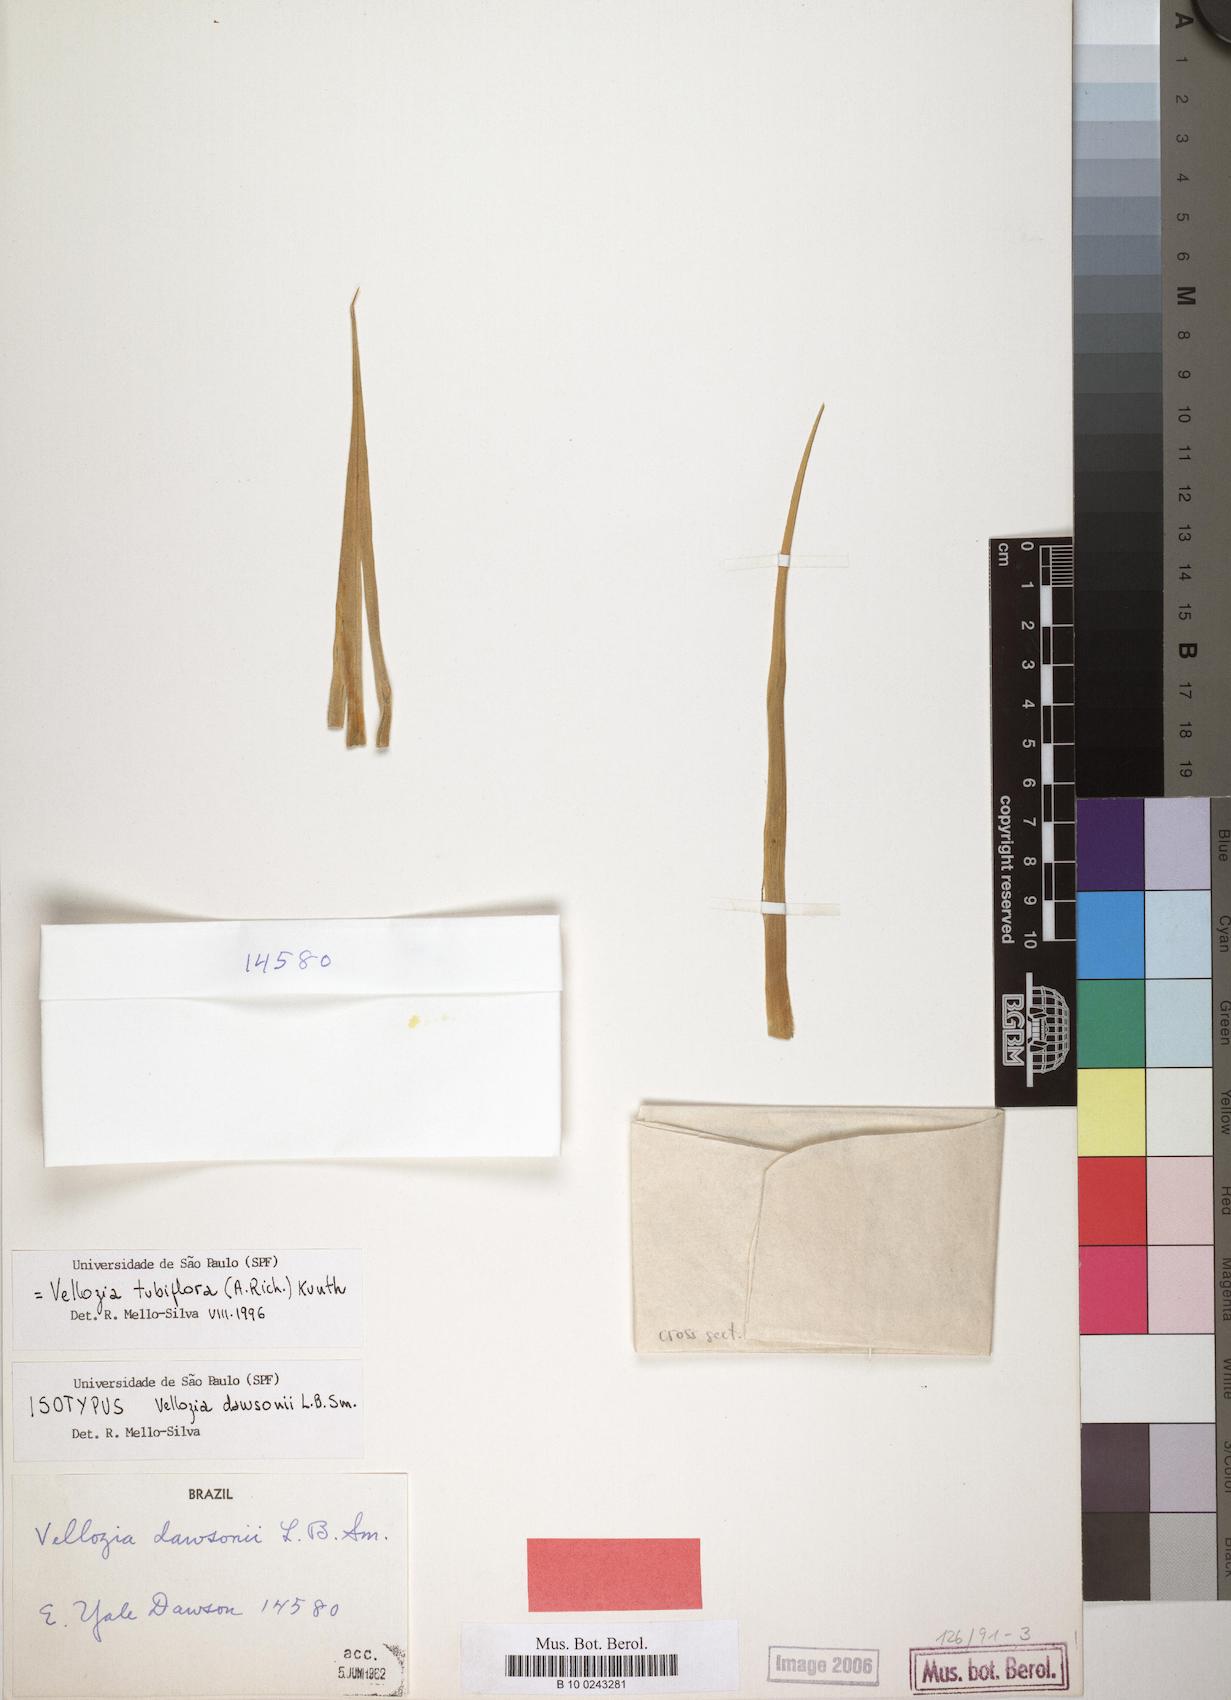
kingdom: Plantae
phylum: Tracheophyta
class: Liliopsida
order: Pandanales
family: Velloziaceae
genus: Vellozia
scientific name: Vellozia tubiflora
